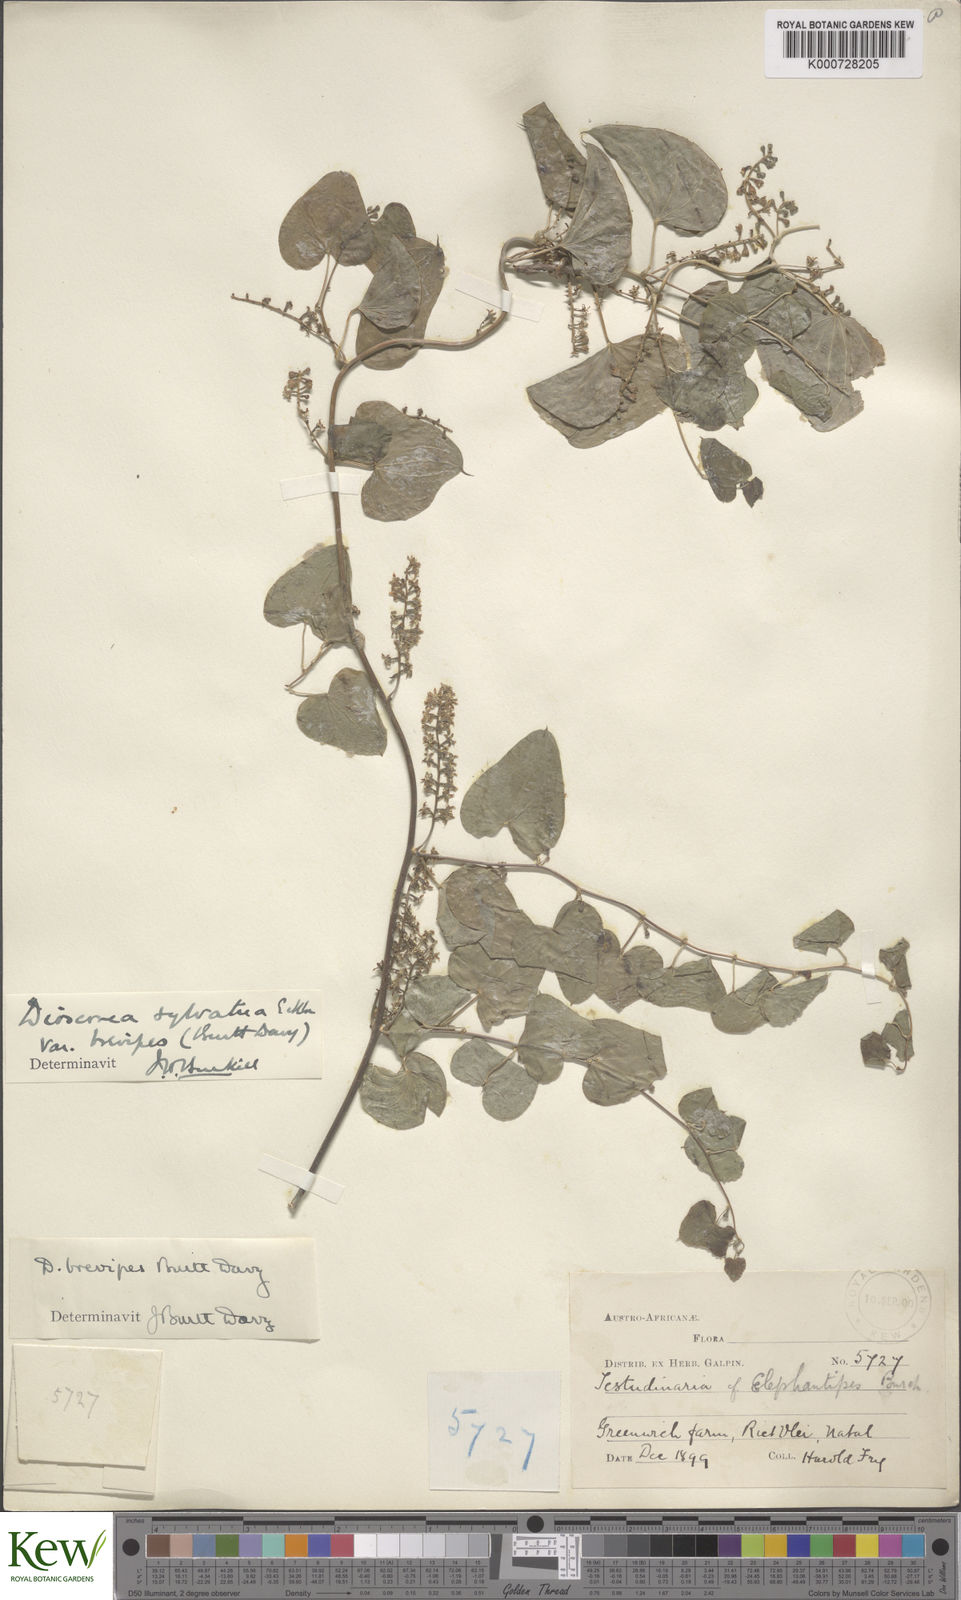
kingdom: Plantae
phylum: Tracheophyta
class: Liliopsida
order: Dioscoreales
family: Dioscoreaceae
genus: Dioscorea
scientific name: Dioscorea sylvatica
